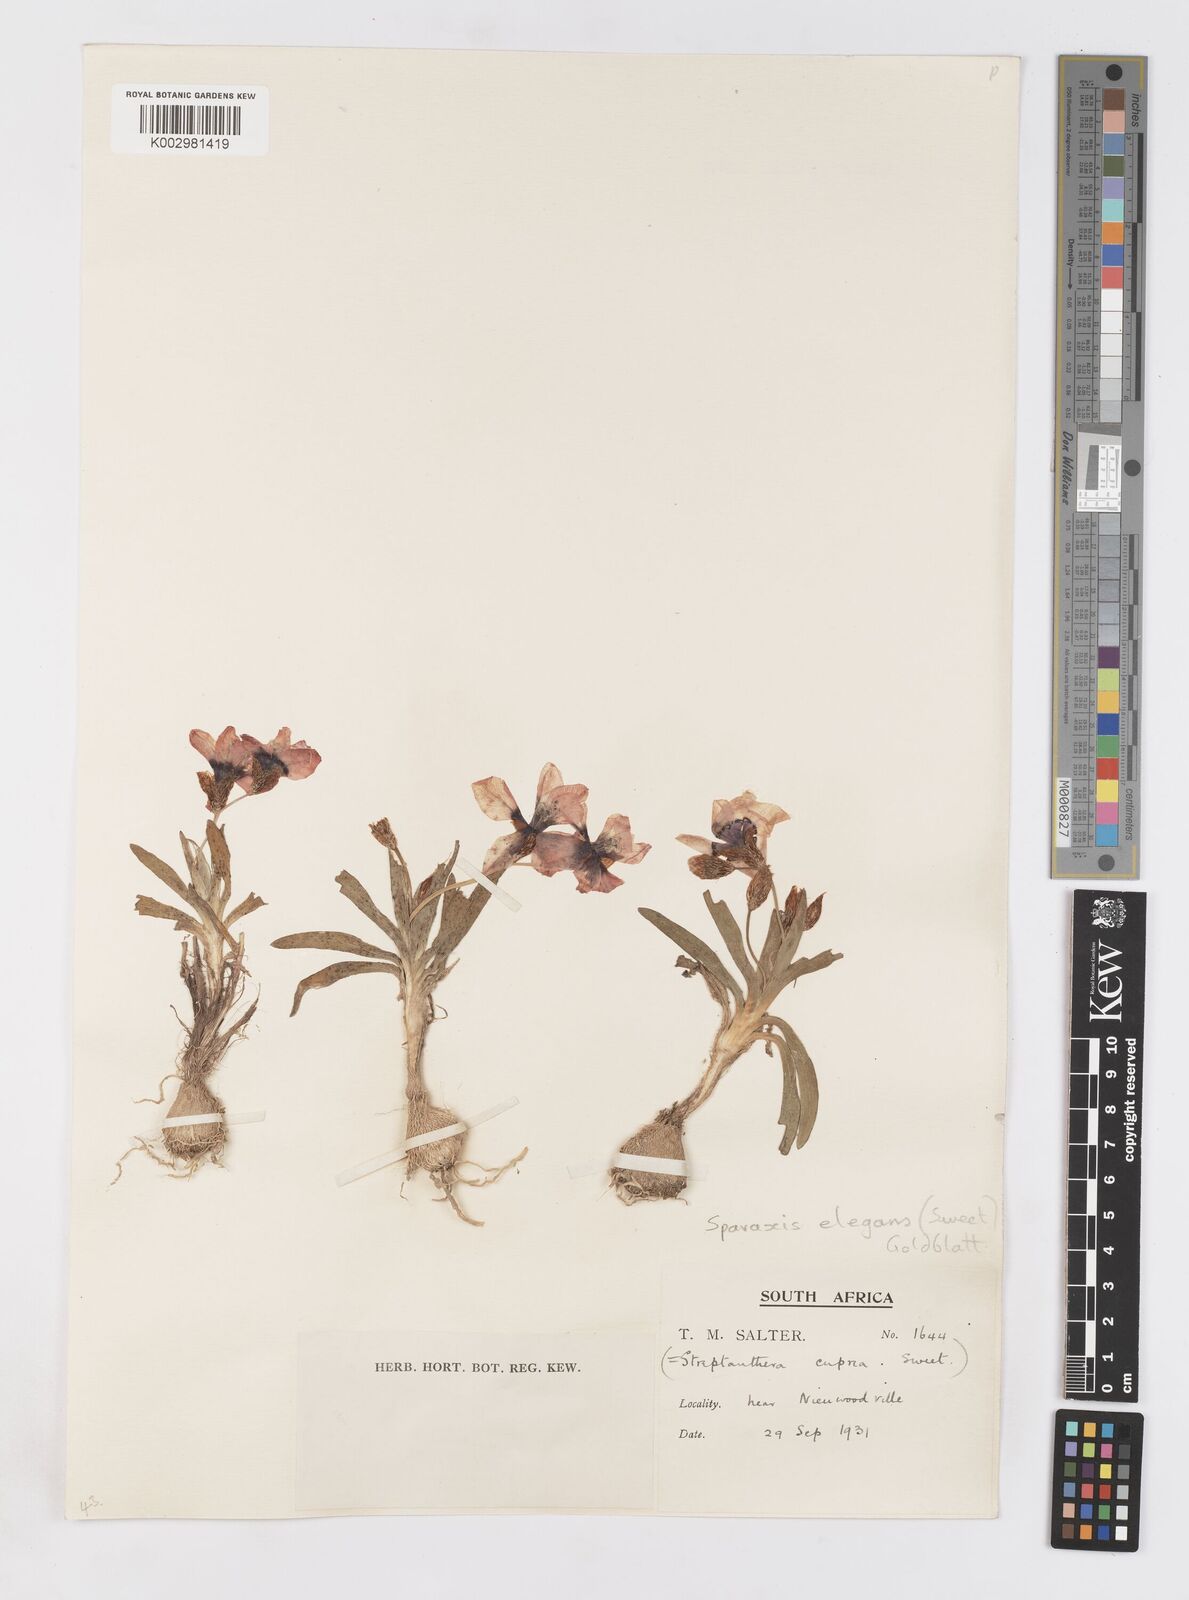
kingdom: Plantae
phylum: Tracheophyta
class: Liliopsida
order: Asparagales
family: Iridaceae
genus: Sparaxis
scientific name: Sparaxis elegans
